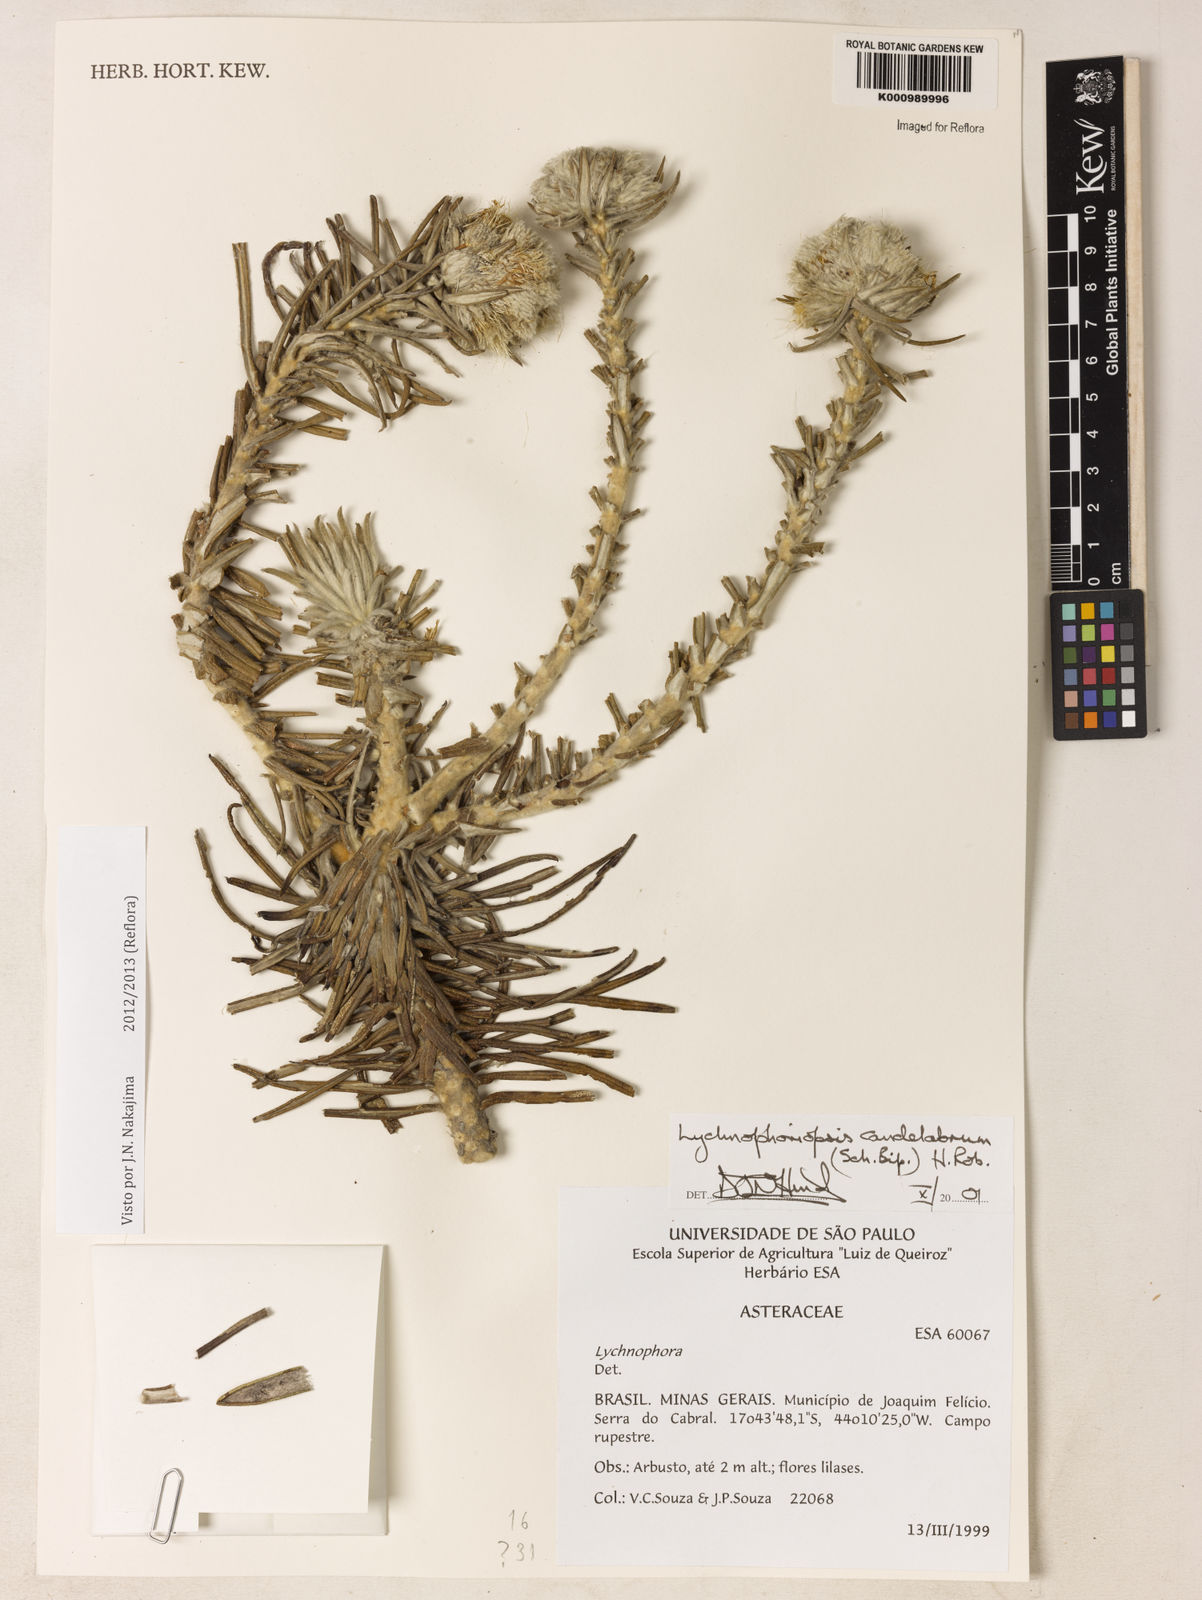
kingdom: Plantae
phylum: Tracheophyta
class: Magnoliopsida
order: Asterales
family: Asteraceae
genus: Lychnophora
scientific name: Lychnophora candelabrum
